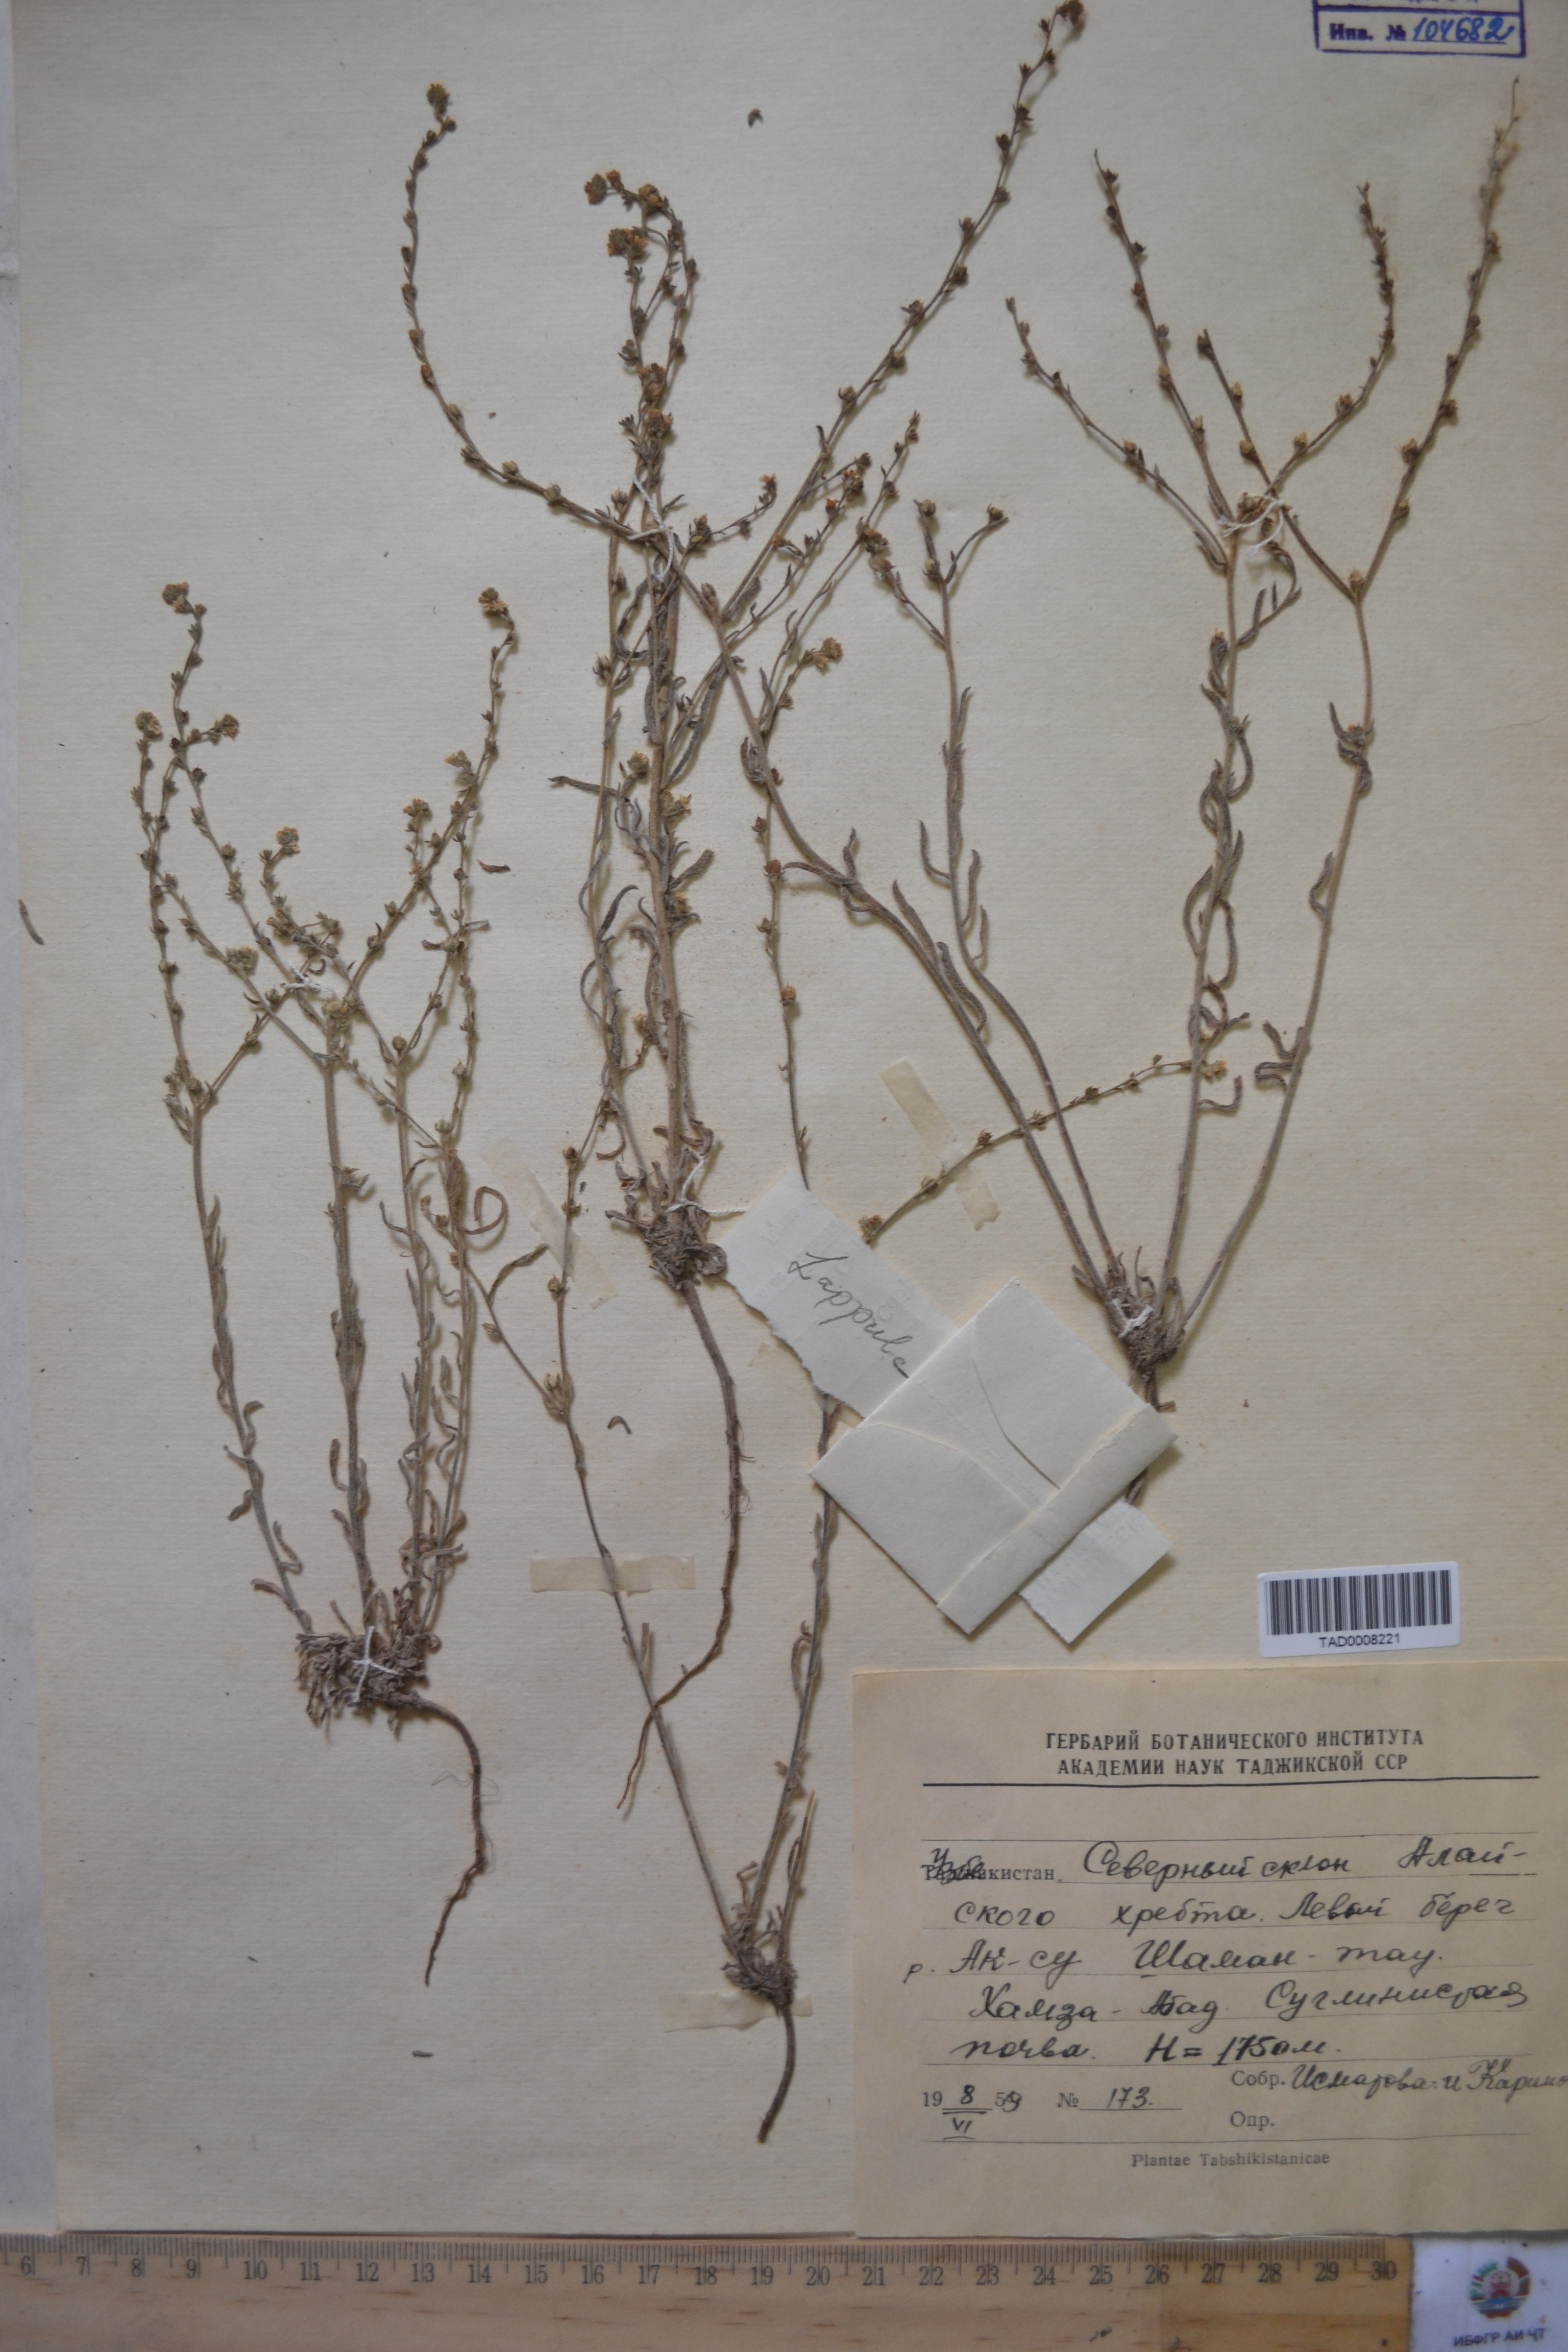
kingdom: Plantae
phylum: Tracheophyta
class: Magnoliopsida
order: Boraginales
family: Boraginaceae
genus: Lappula
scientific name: Lappula squarrosa
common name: European stickseed
